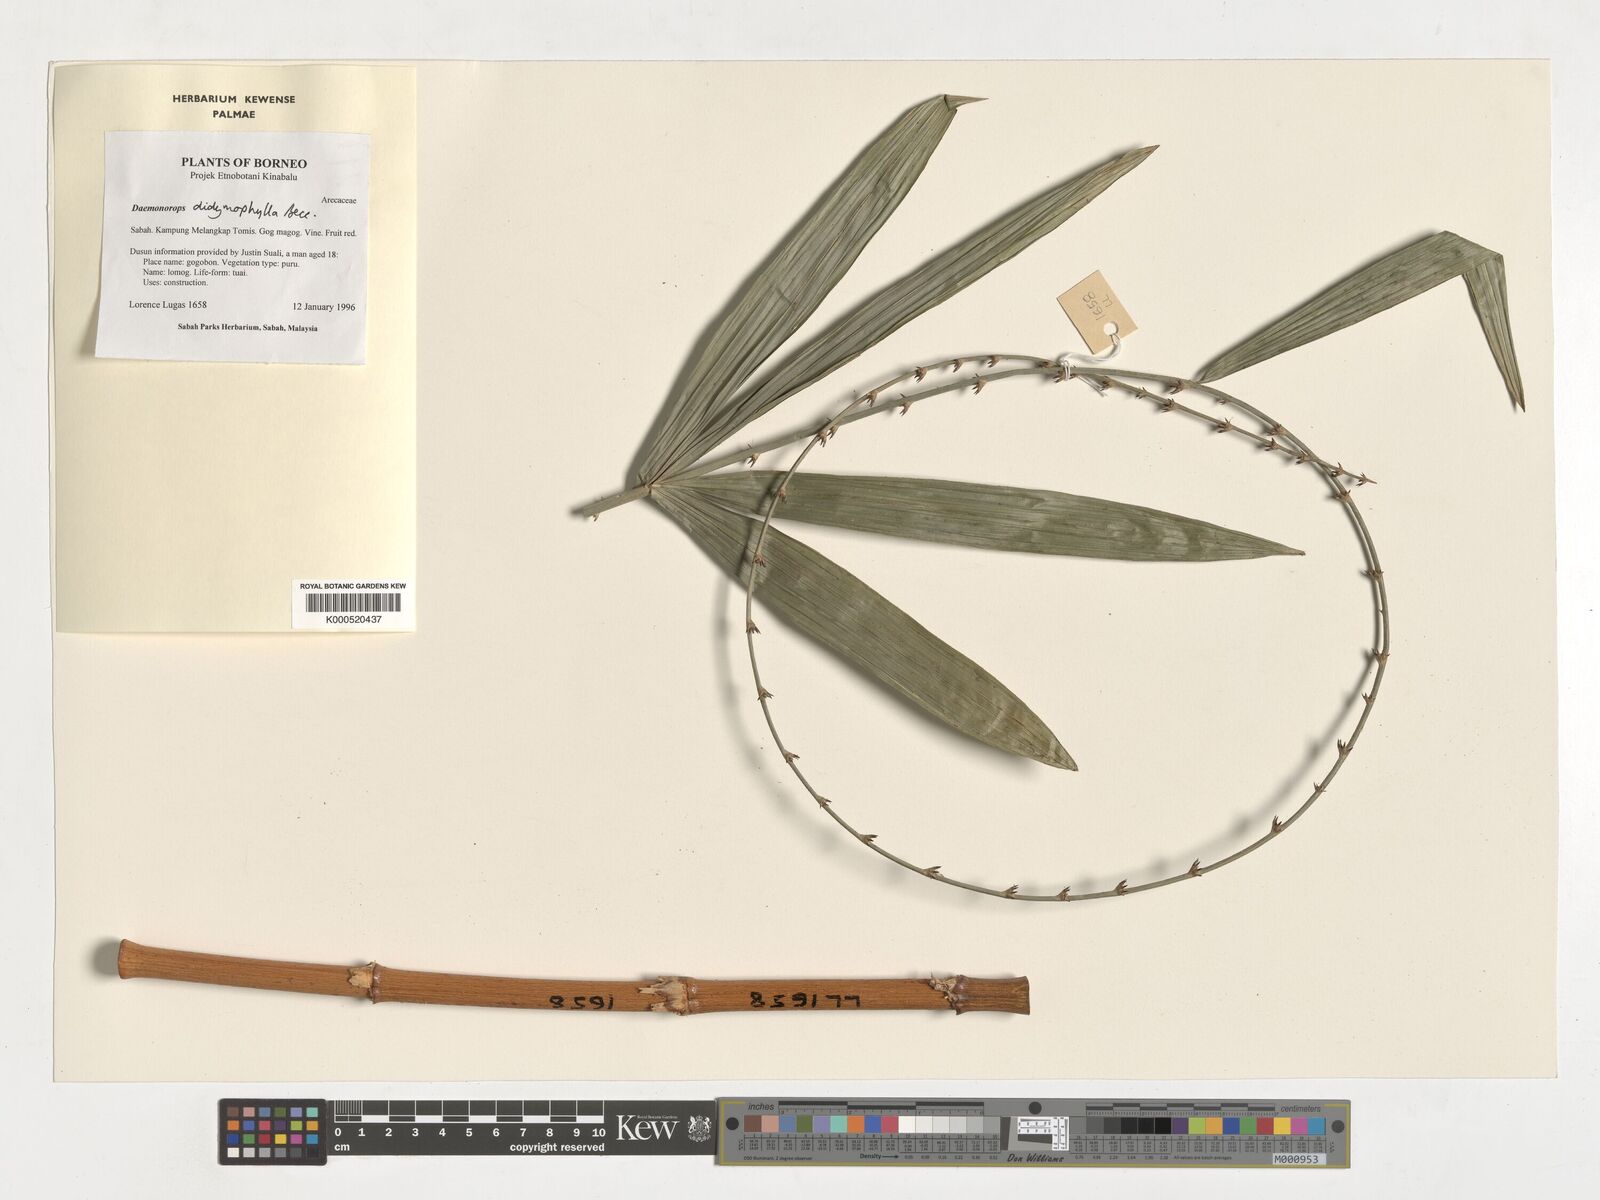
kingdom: Plantae
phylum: Tracheophyta
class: Liliopsida
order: Arecales
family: Arecaceae
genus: Calamus
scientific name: Calamus gracilipes
